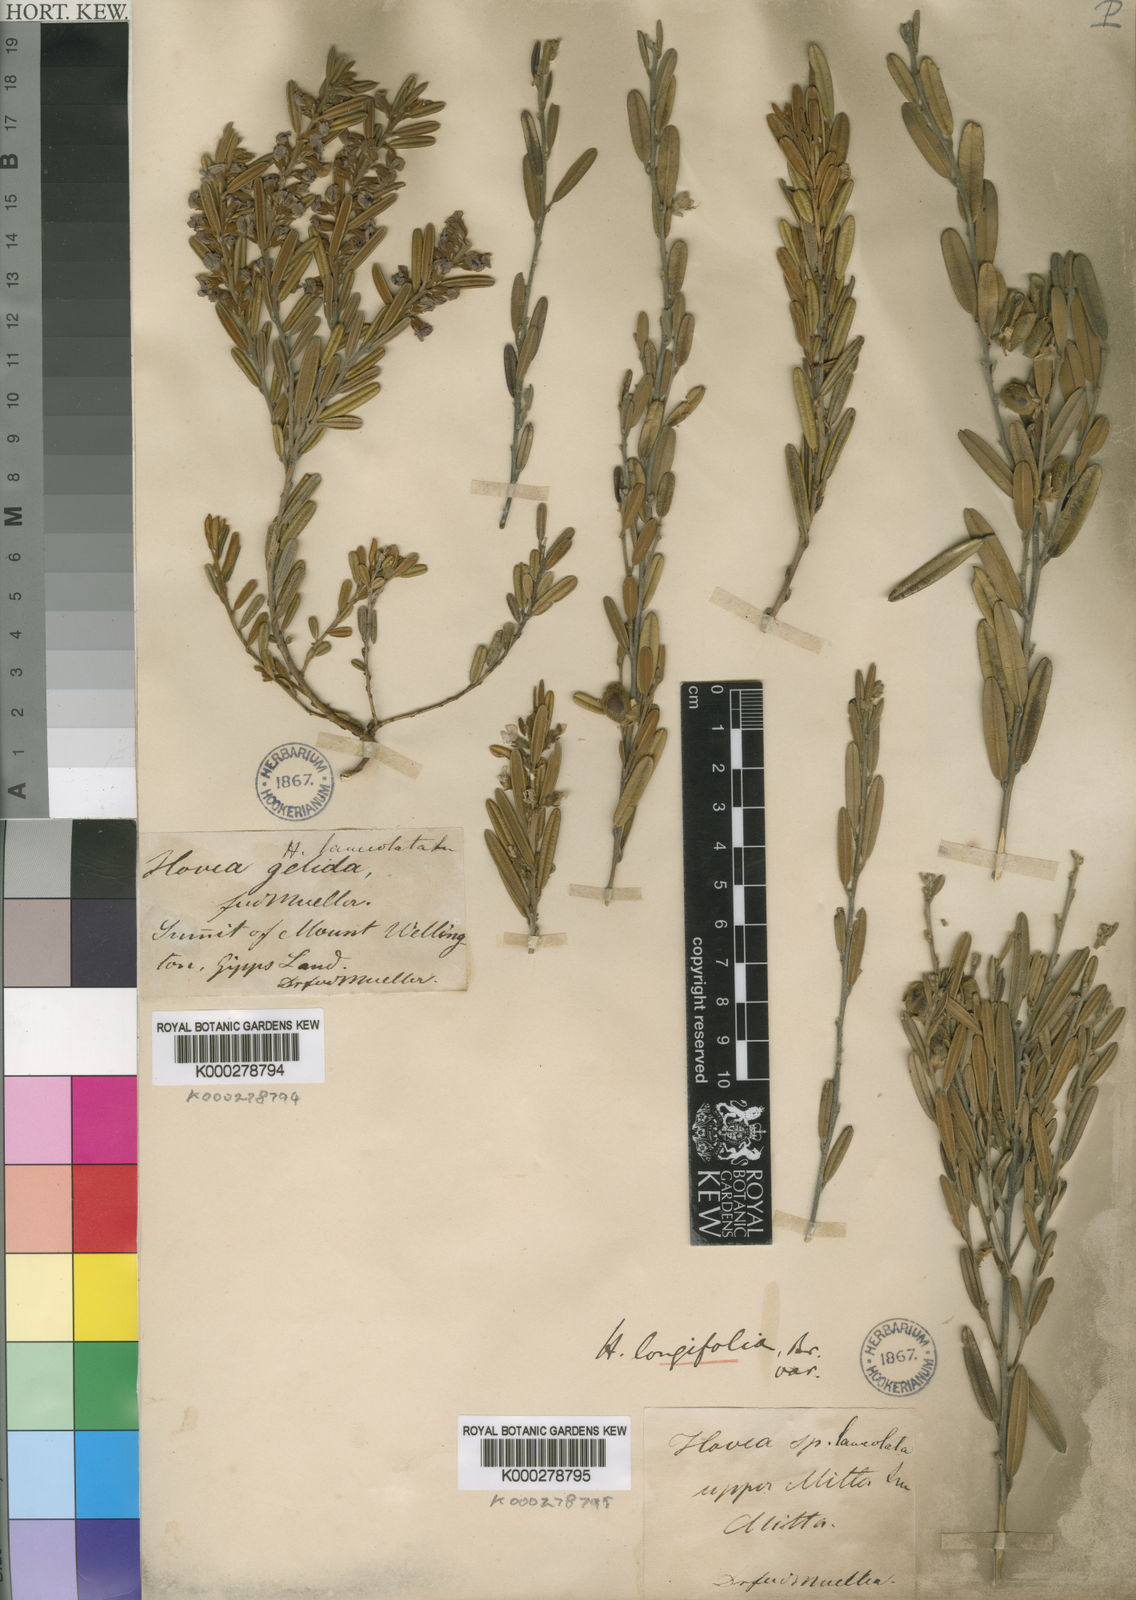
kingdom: Plantae
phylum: Tracheophyta
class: Magnoliopsida
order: Fabales
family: Fabaceae
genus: Hovea
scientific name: Hovea lanceolata
